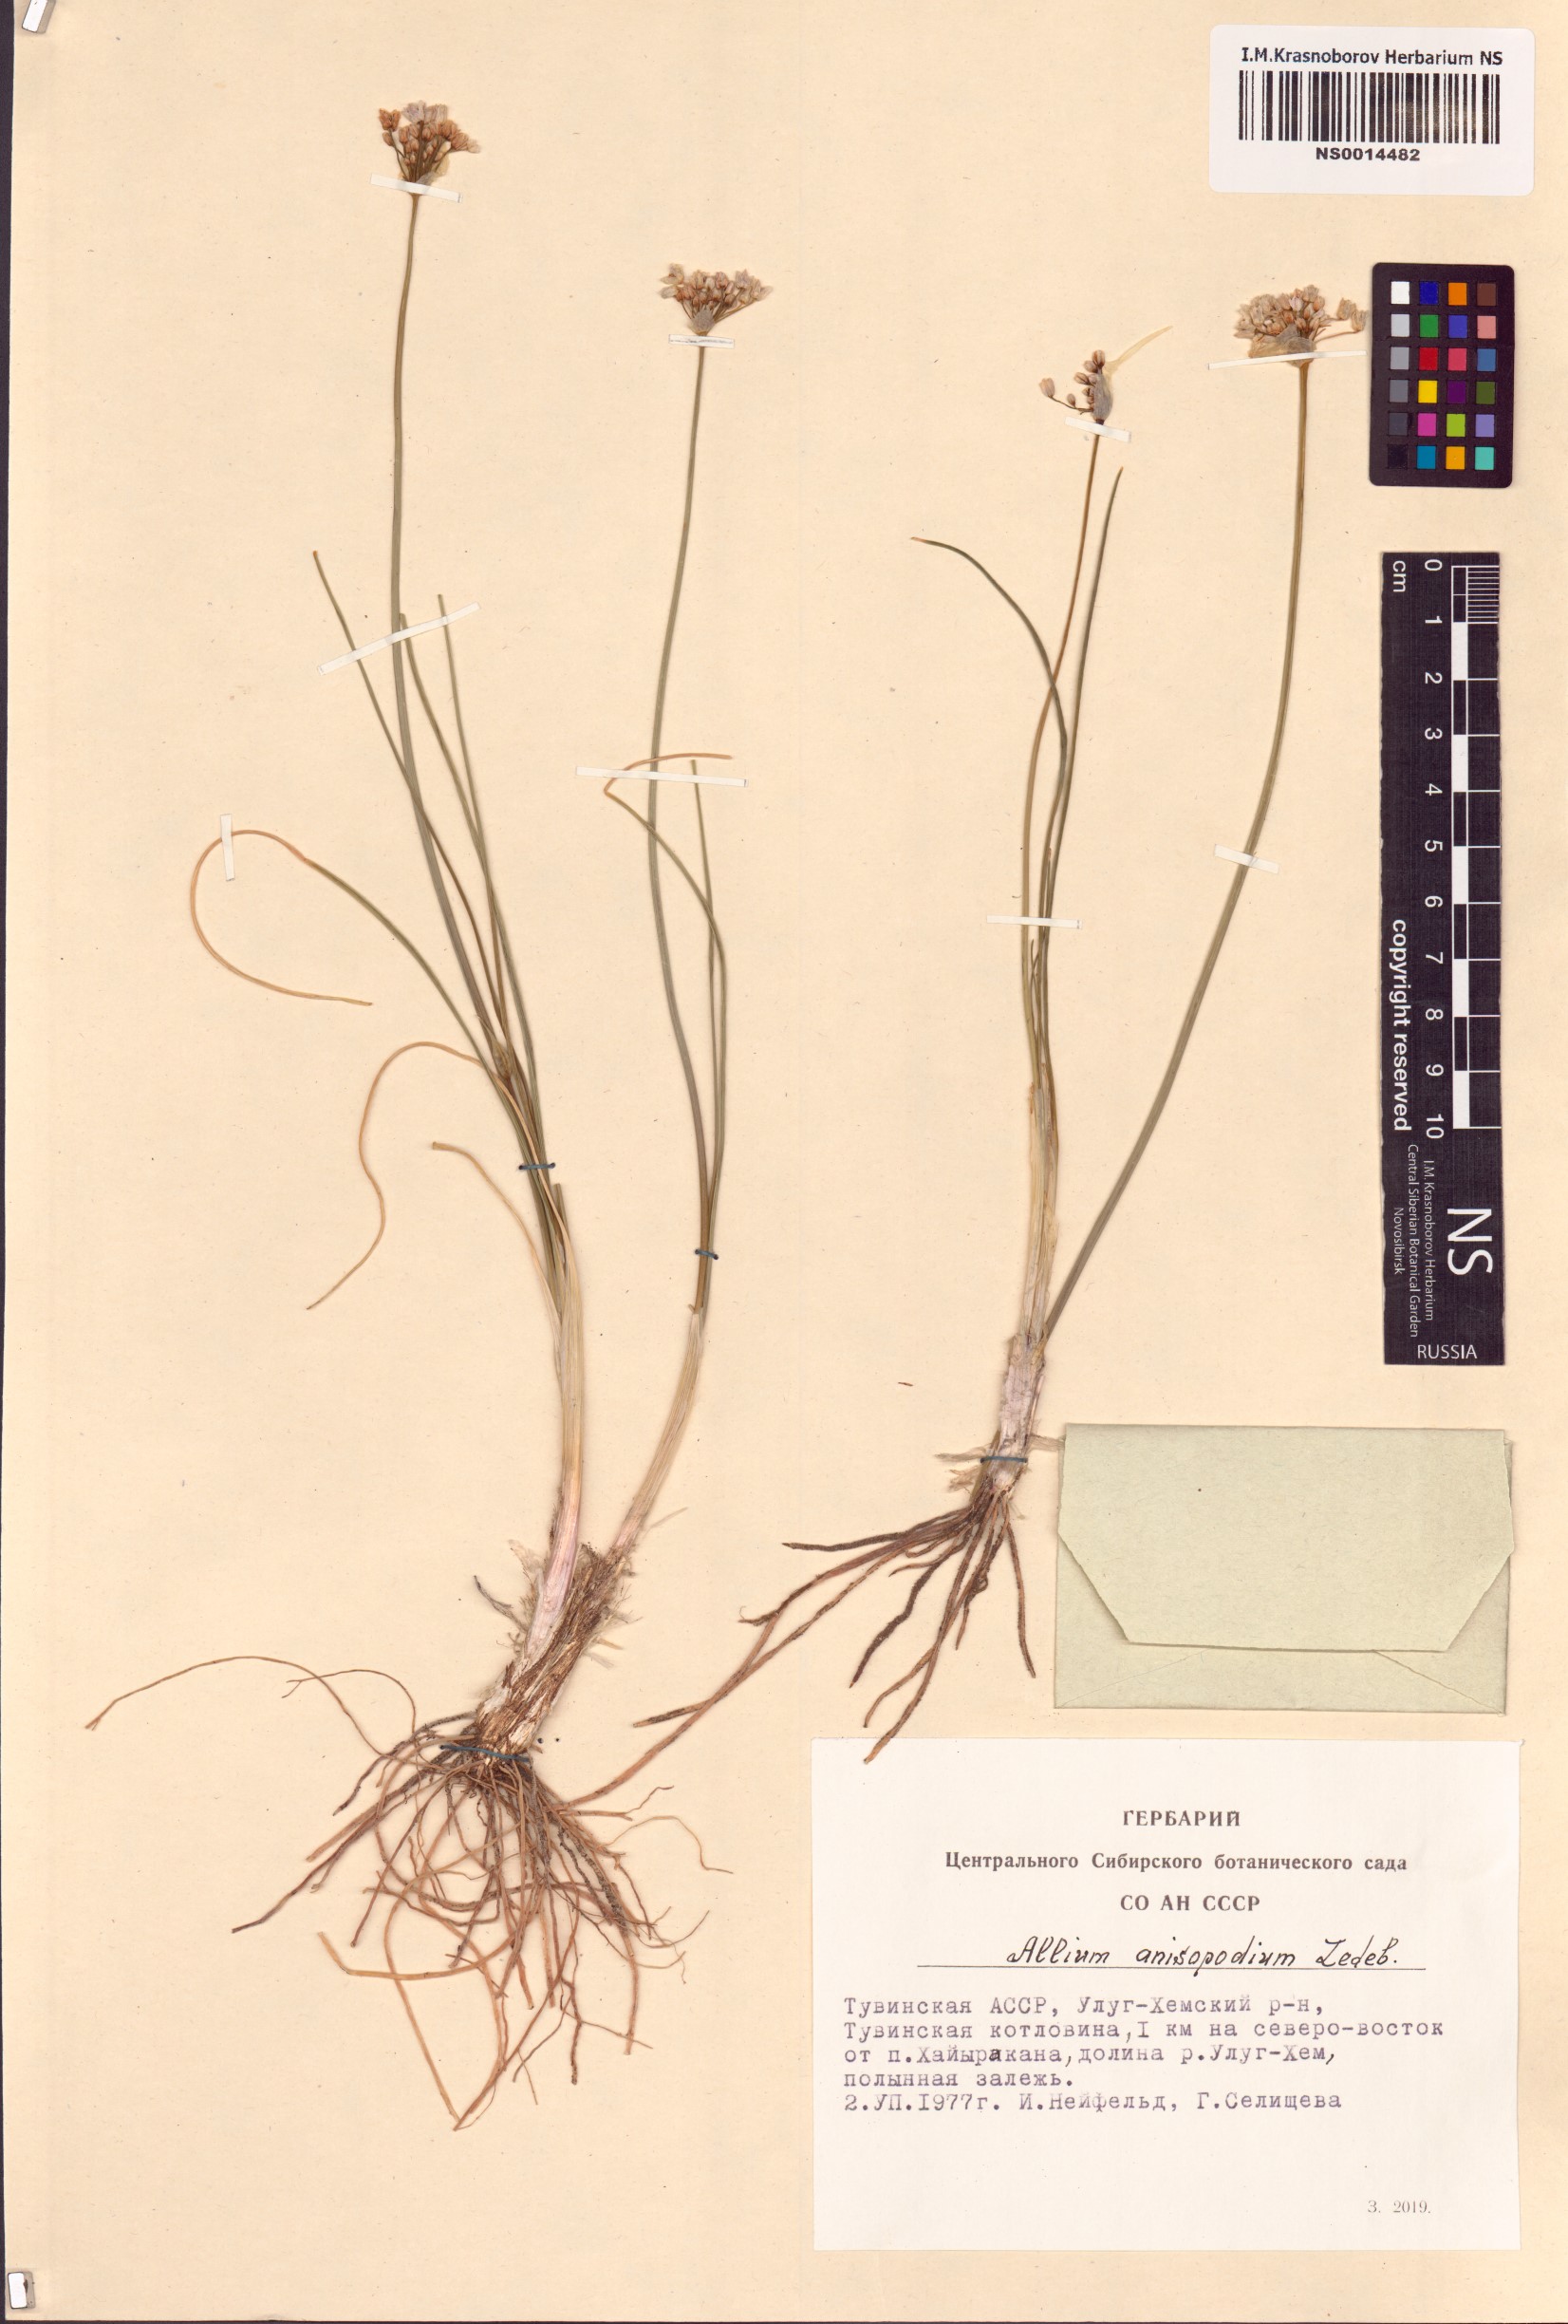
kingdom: Plantae
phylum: Tracheophyta
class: Liliopsida
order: Asparagales
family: Amaryllidaceae
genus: Allium
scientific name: Allium anisopodium
